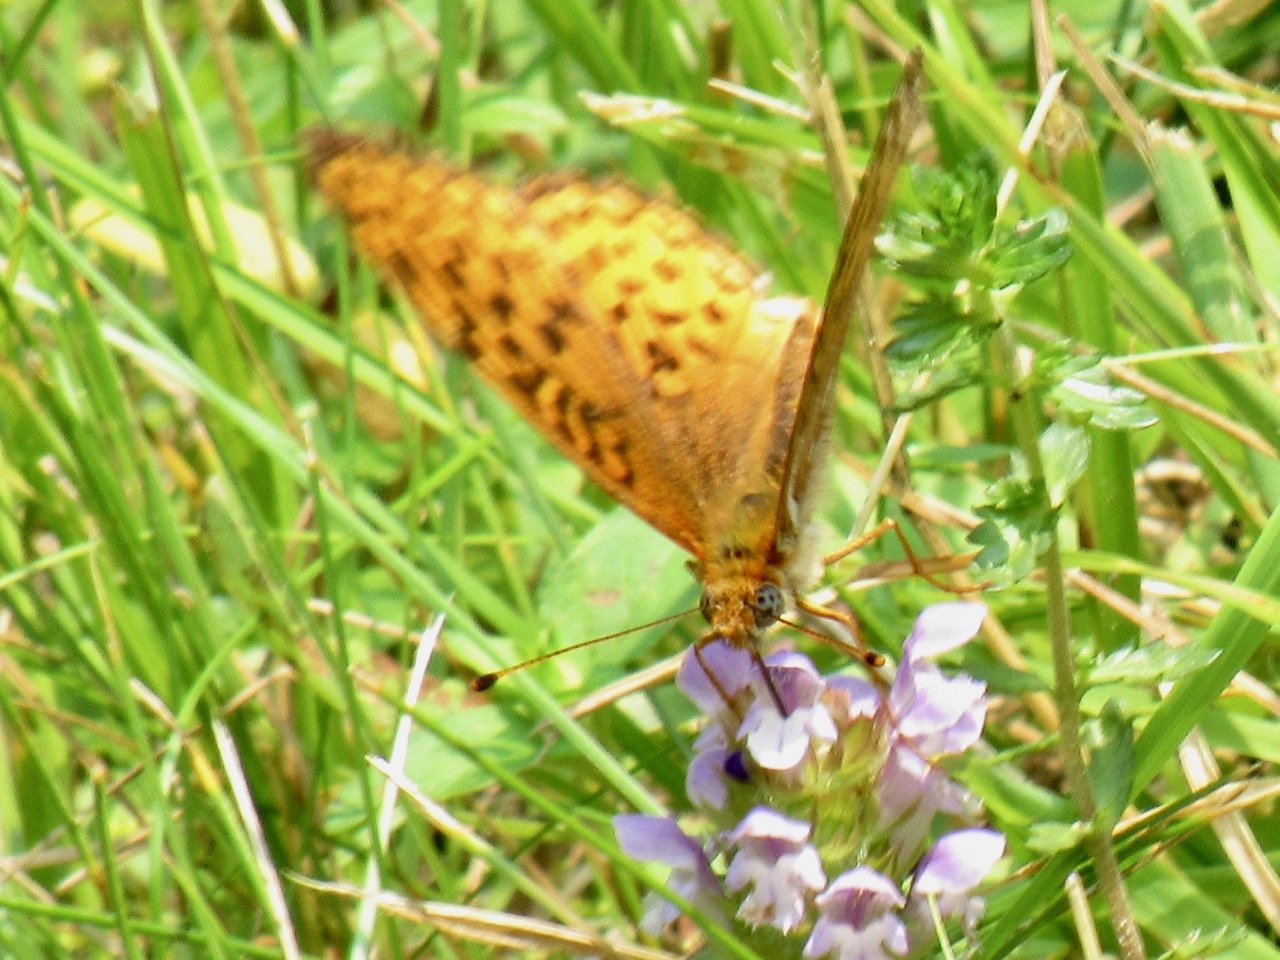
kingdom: Animalia
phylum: Arthropoda
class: Insecta
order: Lepidoptera
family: Nymphalidae
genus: Speyeria
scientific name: Speyeria atlantis
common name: Atlantis Fritillary
